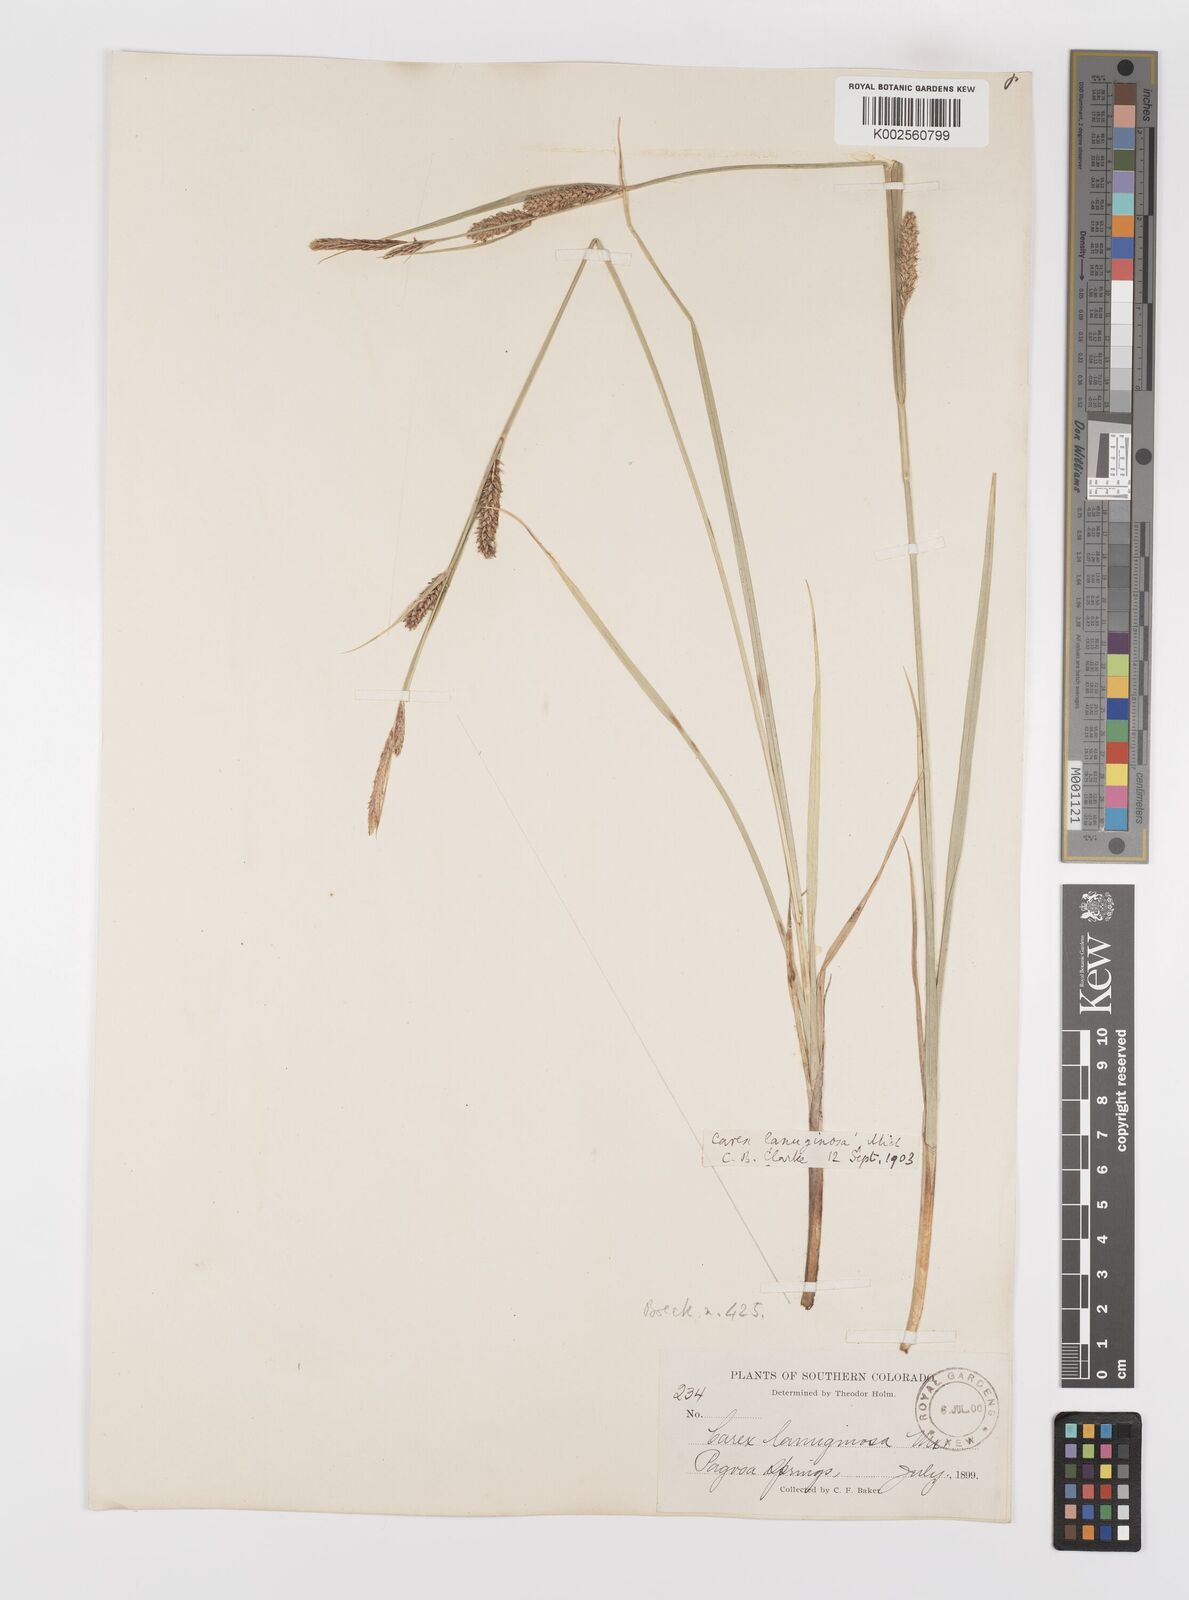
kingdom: Plantae
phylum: Tracheophyta
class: Liliopsida
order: Poales
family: Cyperaceae
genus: Carex
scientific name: Carex lasiocarpa
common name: Slender sedge
